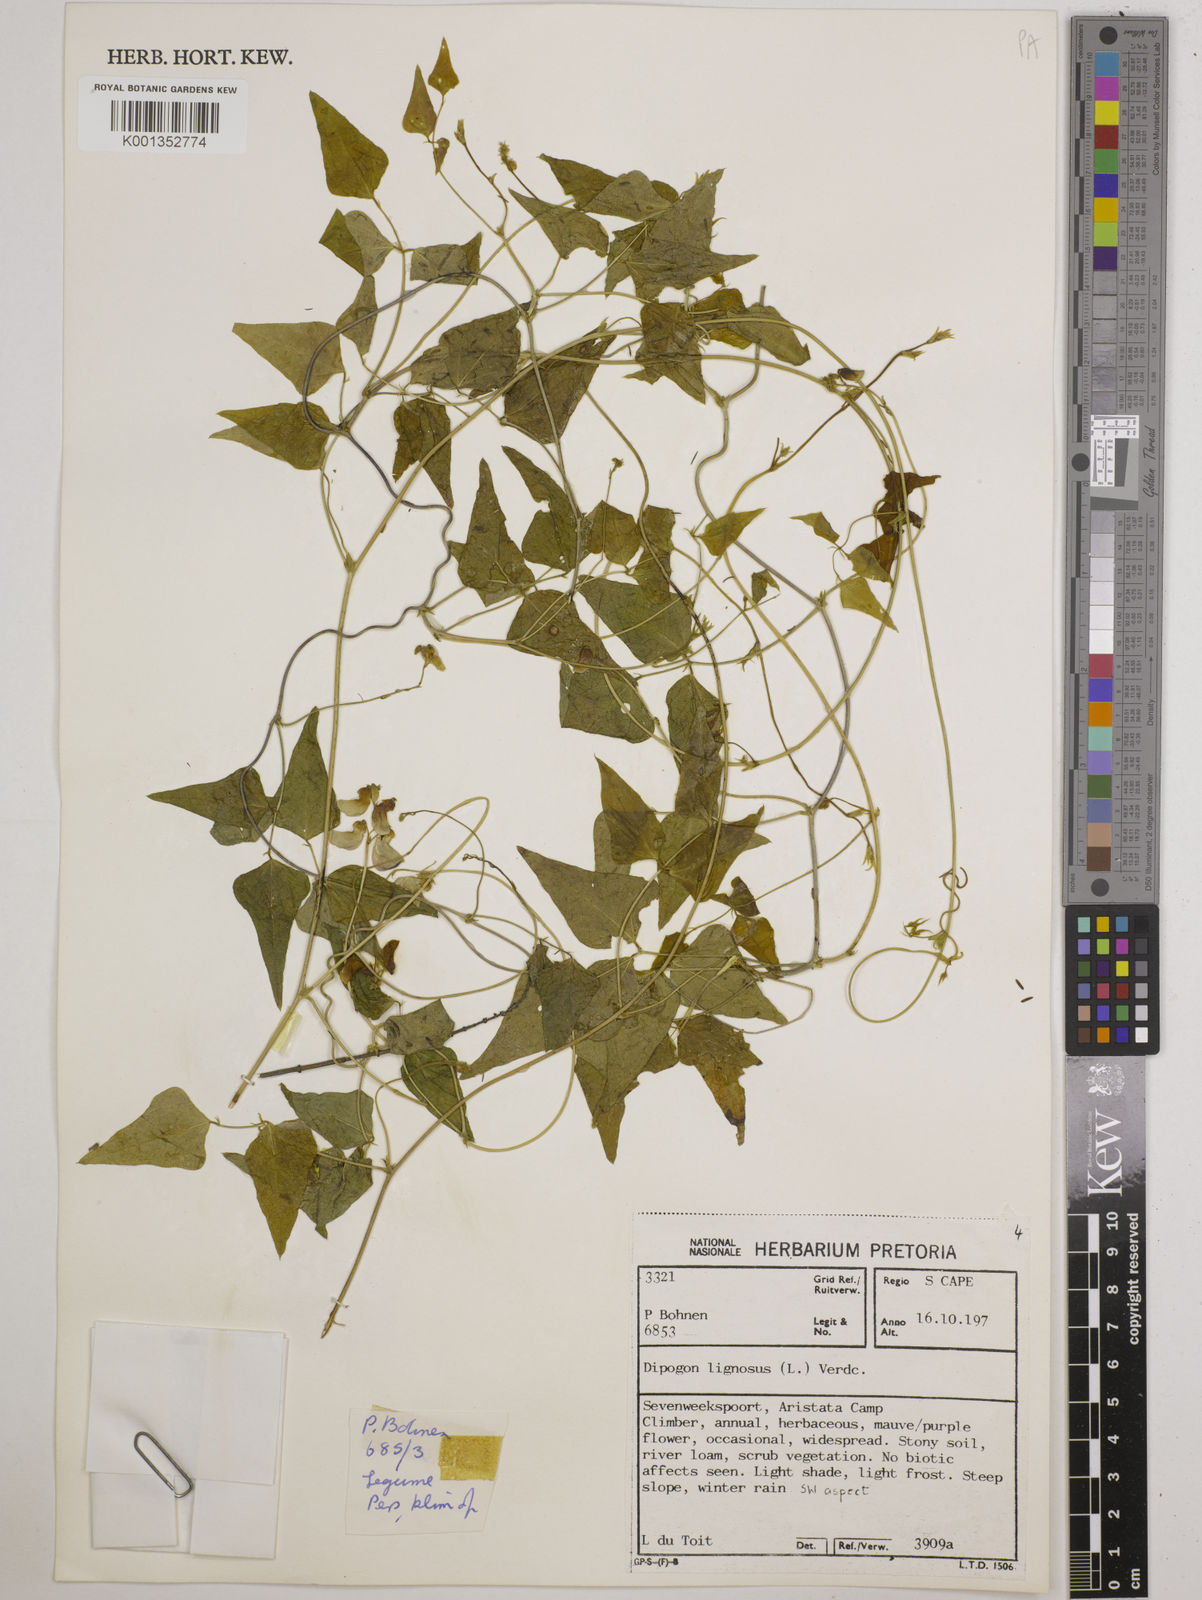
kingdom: Plantae
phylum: Tracheophyta
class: Magnoliopsida
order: Fabales
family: Fabaceae
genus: Dipogon
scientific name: Dipogon lignosus
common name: Okie bean
